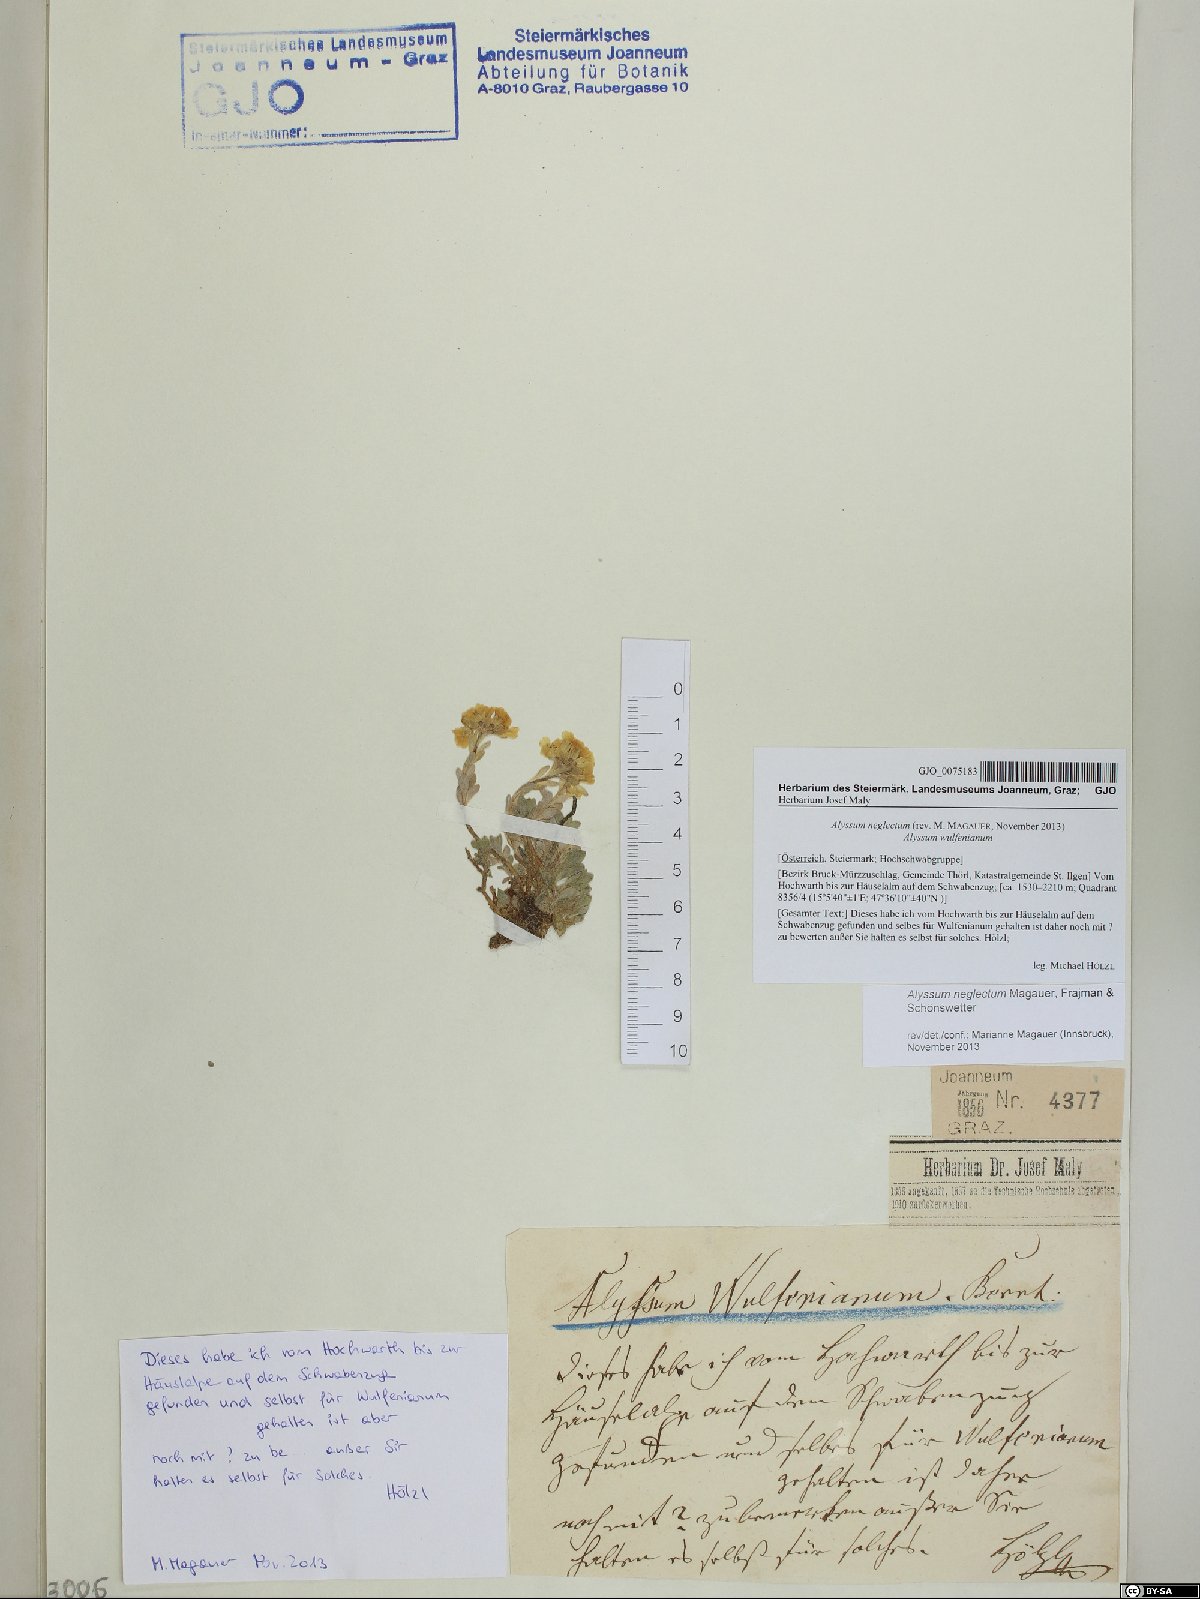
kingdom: Plantae
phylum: Tracheophyta
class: Magnoliopsida
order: Brassicales
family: Brassicaceae
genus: Alyssum
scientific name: Alyssum neglectum
